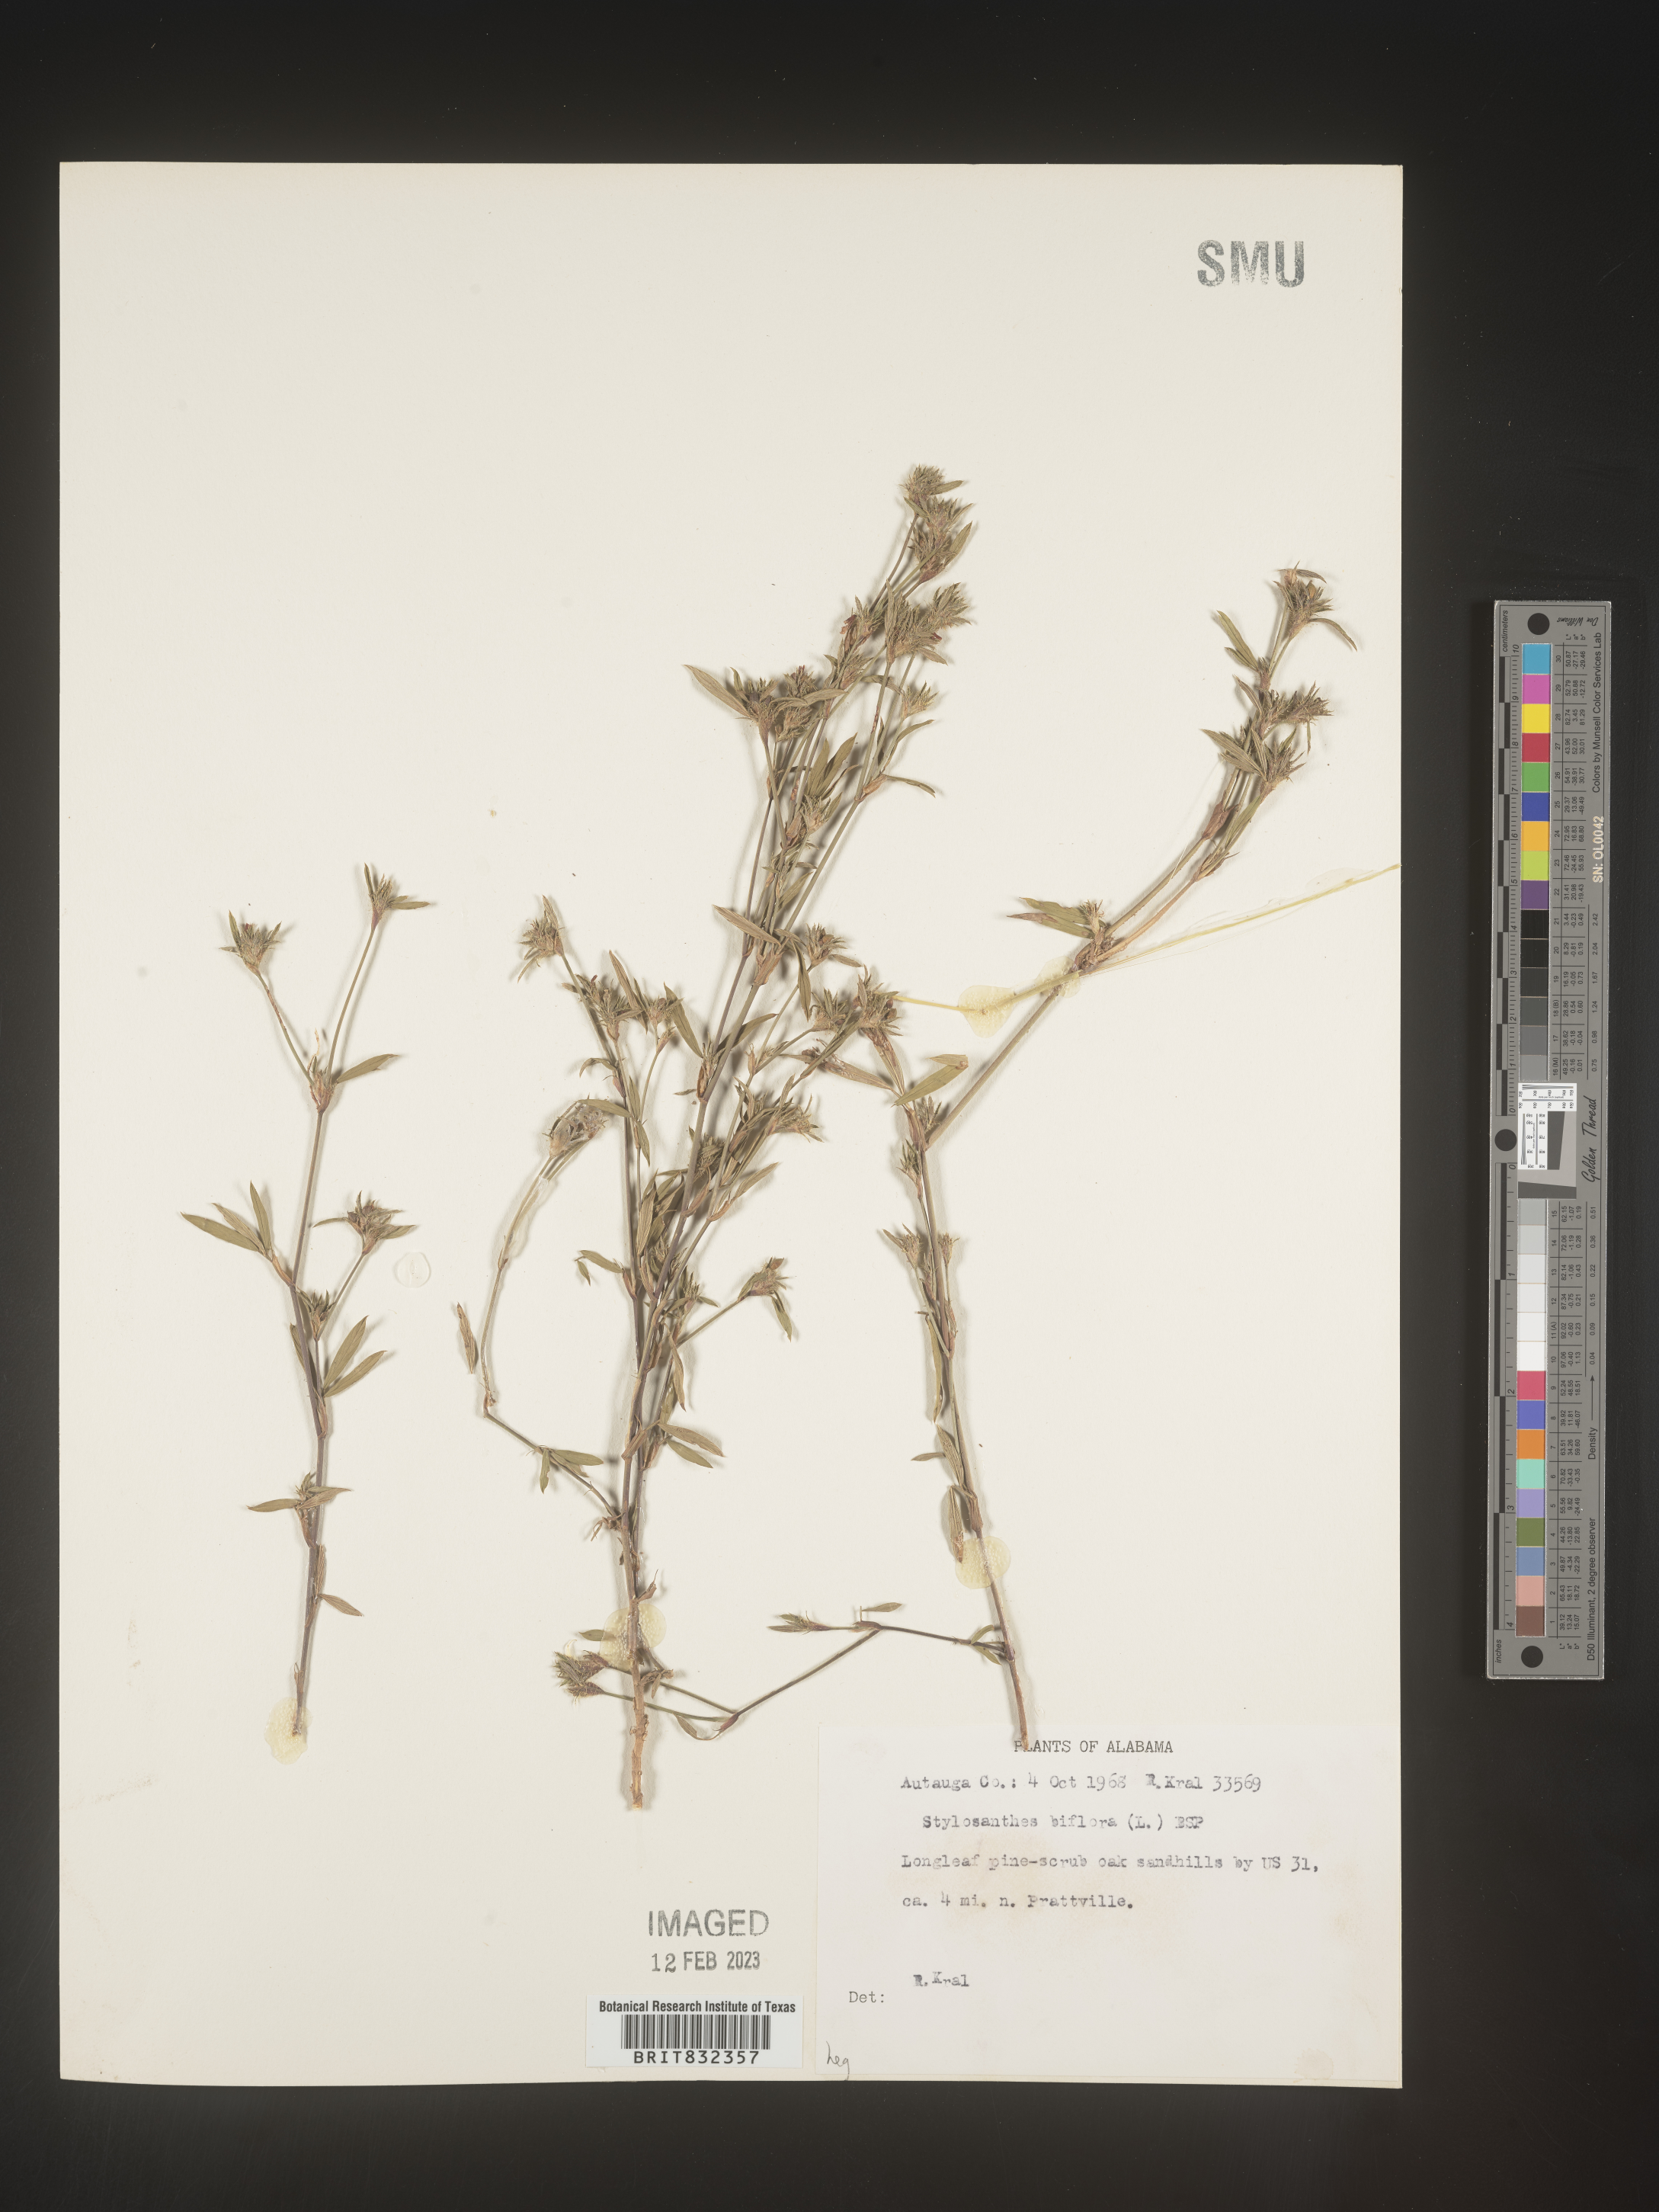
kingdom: Plantae
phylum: Tracheophyta
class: Magnoliopsida
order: Fabales
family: Fabaceae
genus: Stylosanthes
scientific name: Stylosanthes biflora
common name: Two-flower pencil-flower
